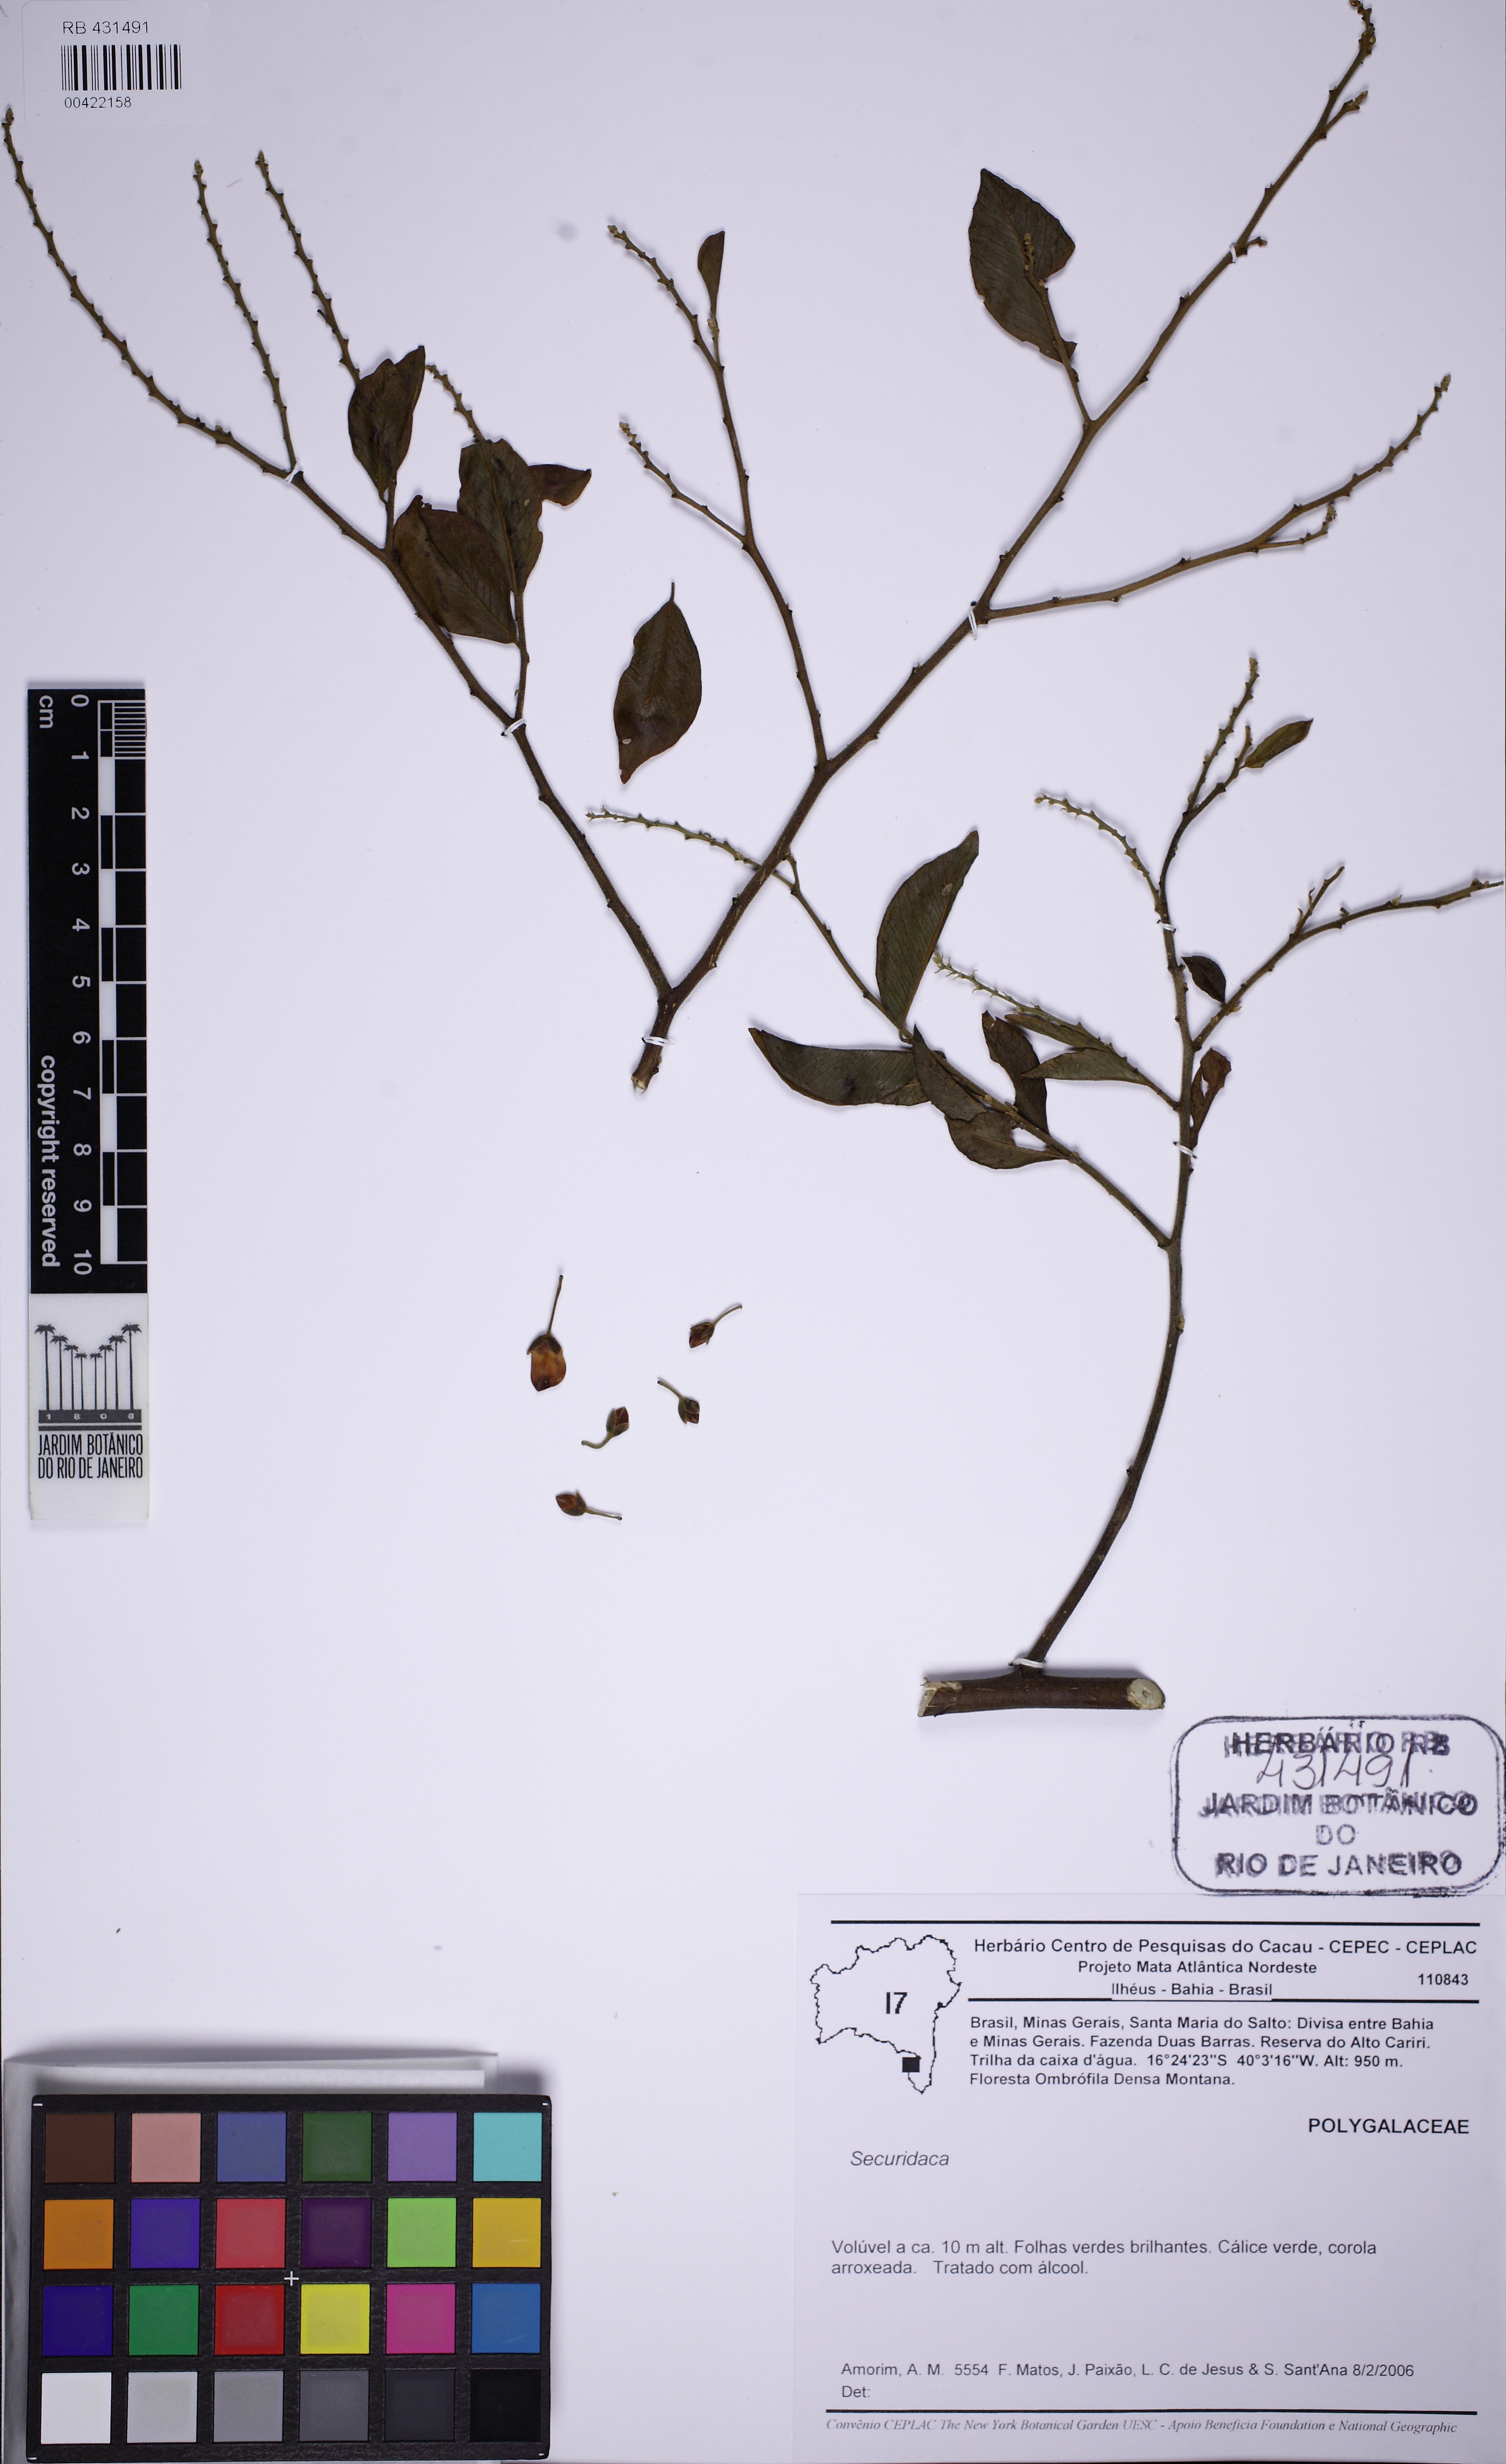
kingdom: Plantae
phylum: Tracheophyta
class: Magnoliopsida
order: Fabales
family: Polygalaceae
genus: Securidaca
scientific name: Securidaca
